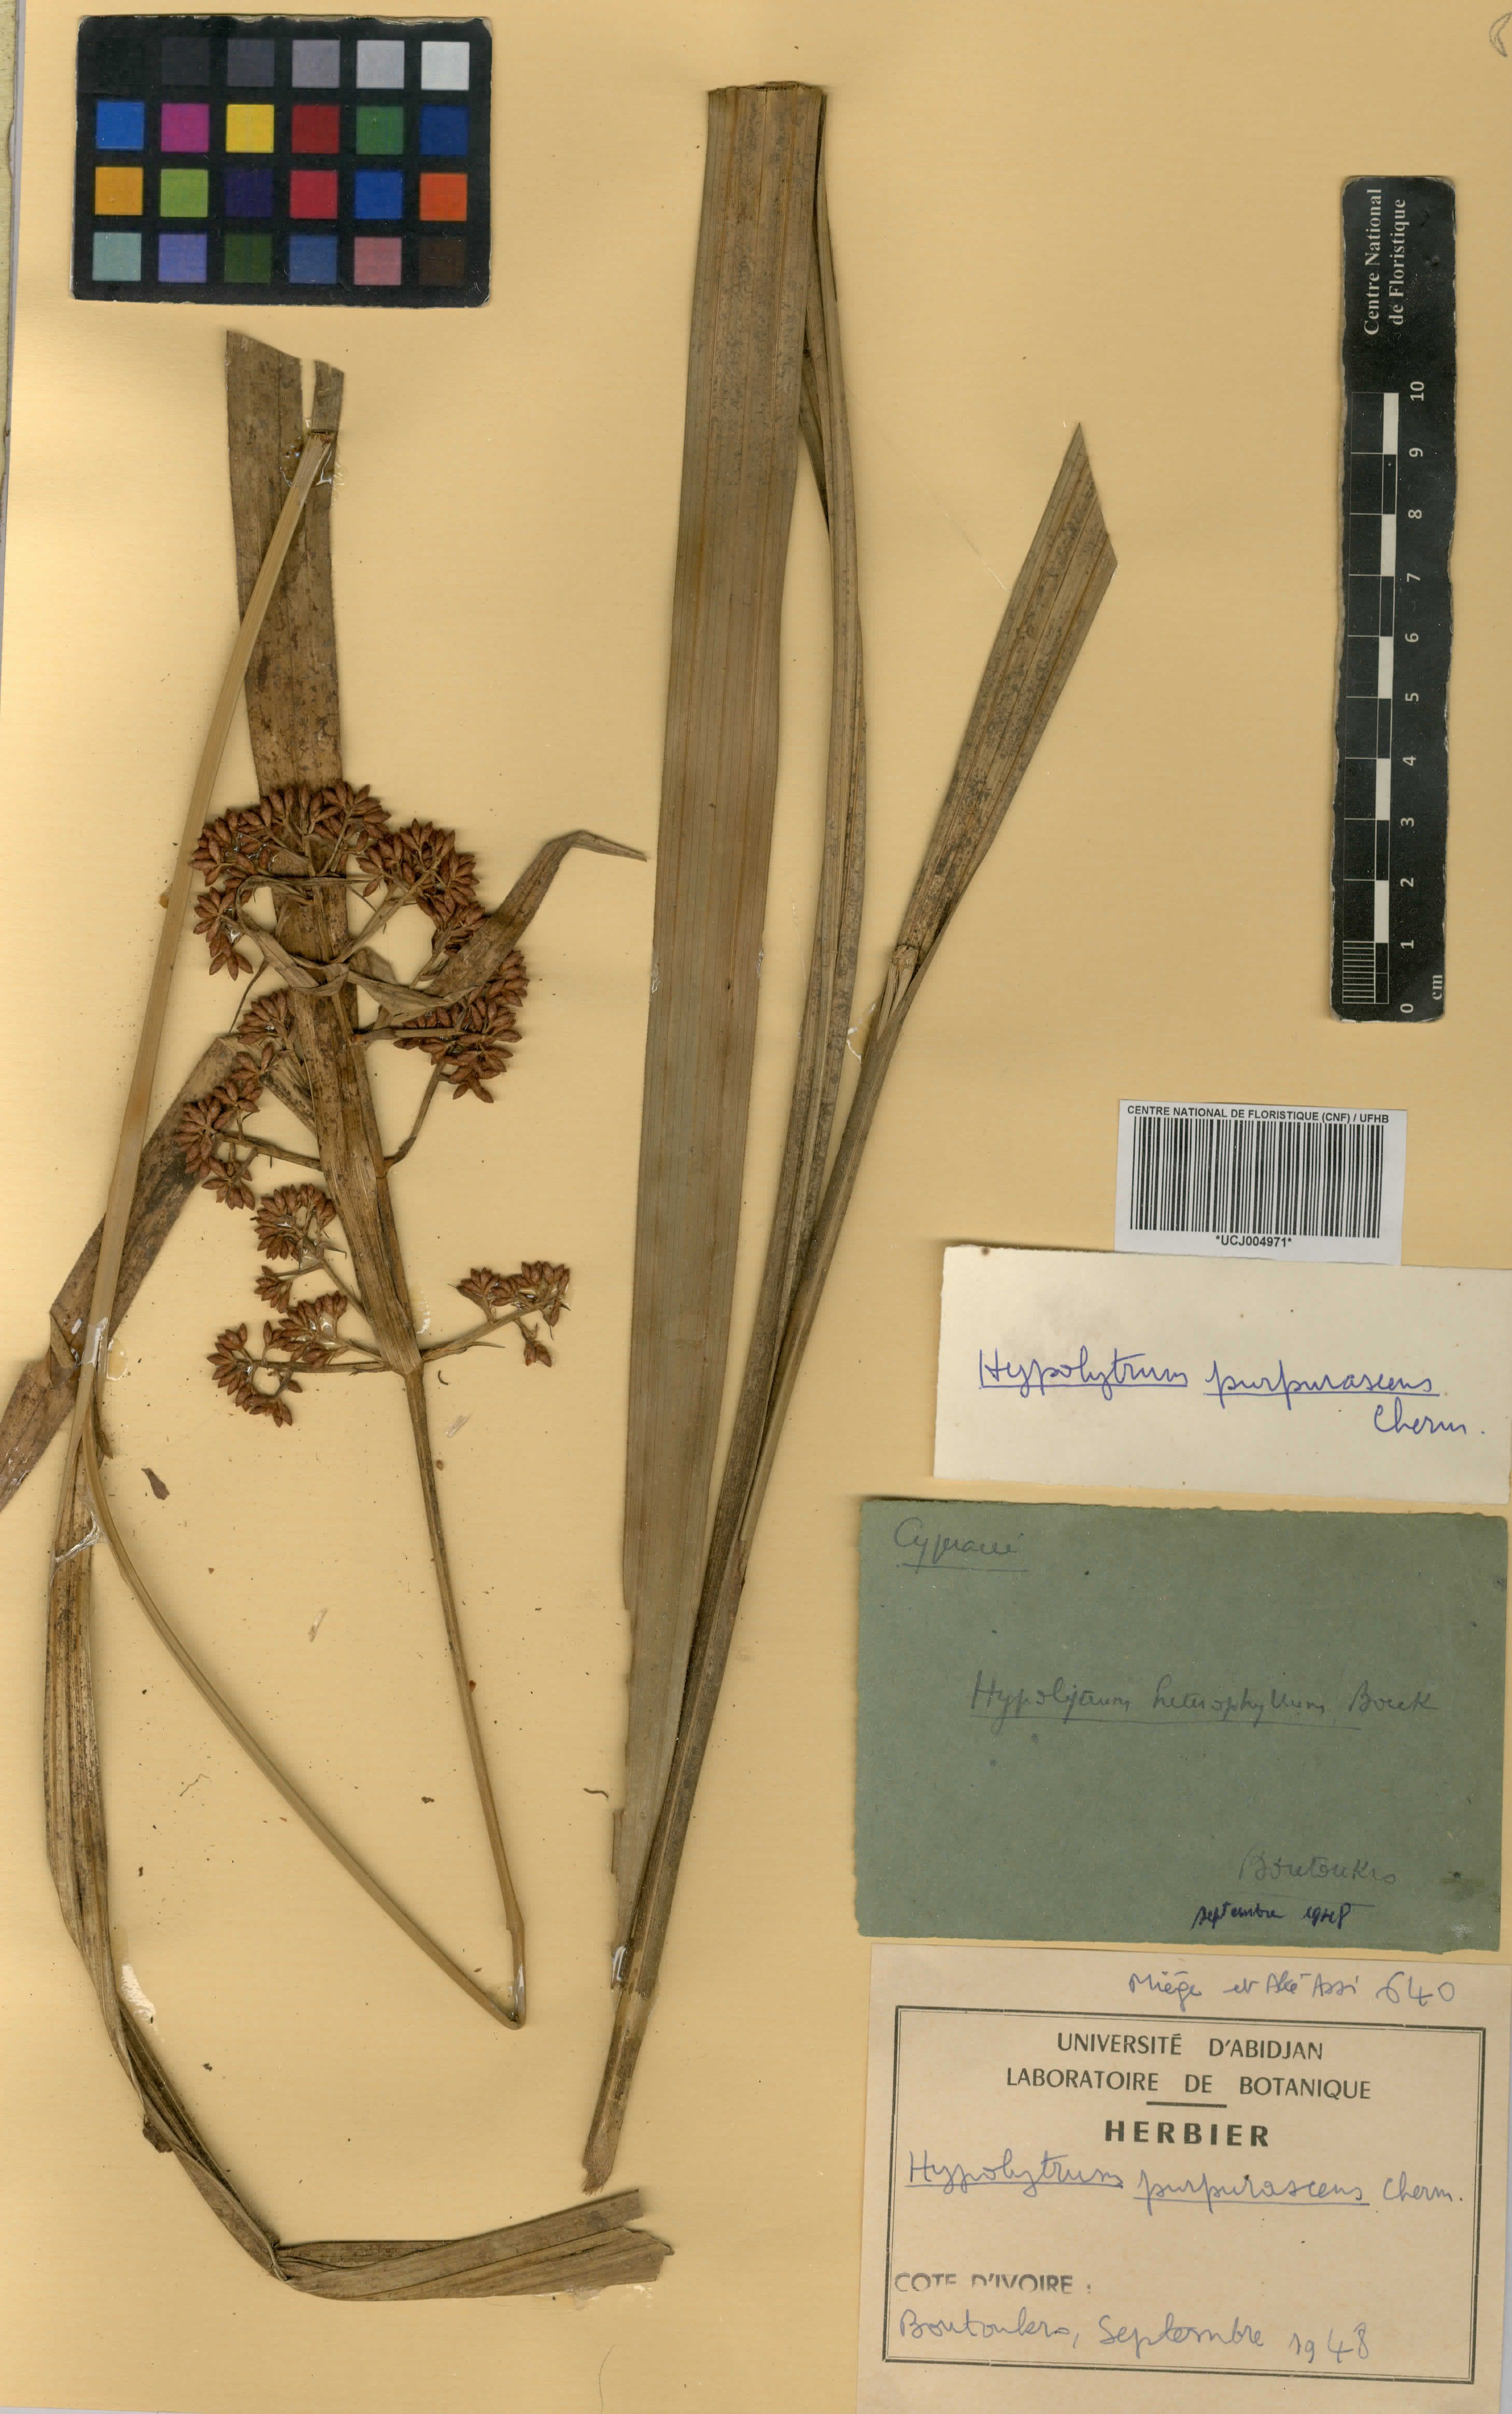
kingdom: Plantae
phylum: Tracheophyta
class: Liliopsida
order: Poales
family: Cyperaceae
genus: Hypolytrum
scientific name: Hypolytrum purpurascens
